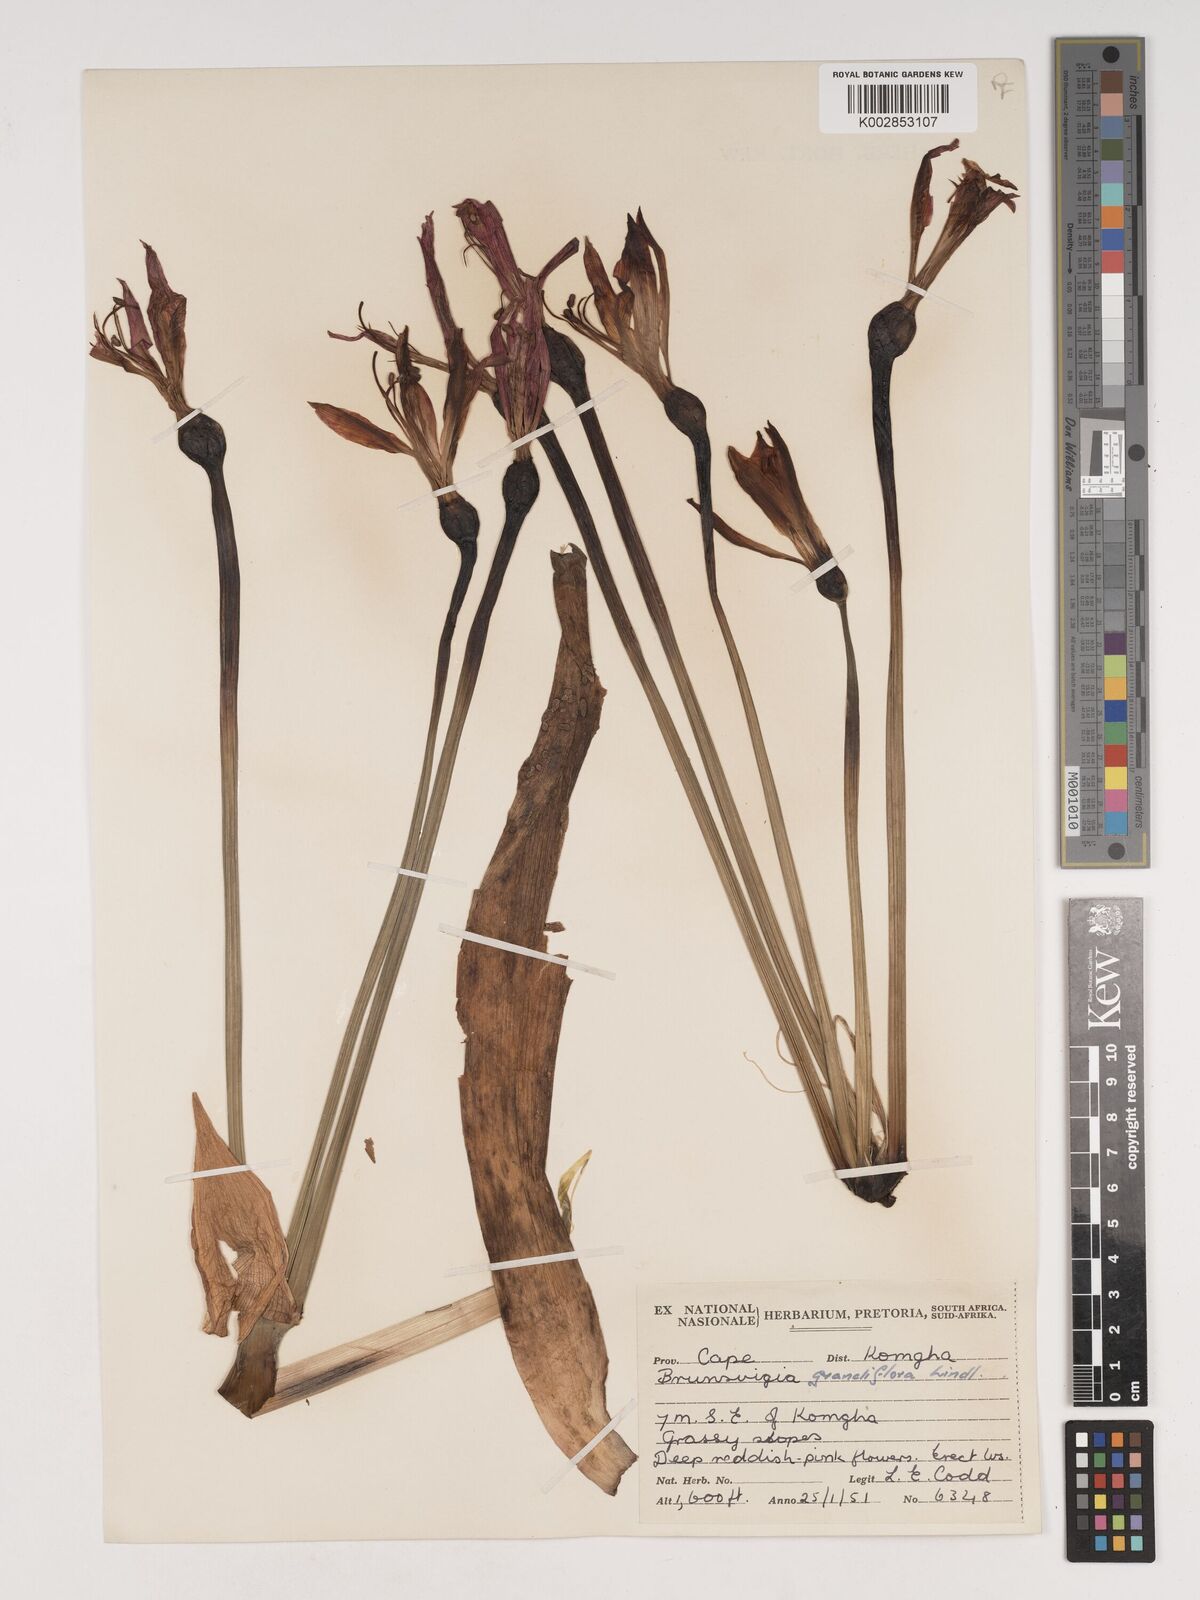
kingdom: Plantae
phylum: Tracheophyta
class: Liliopsida
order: Asparagales
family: Amaryllidaceae
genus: Brunsvigia
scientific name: Brunsvigia grandiflora
